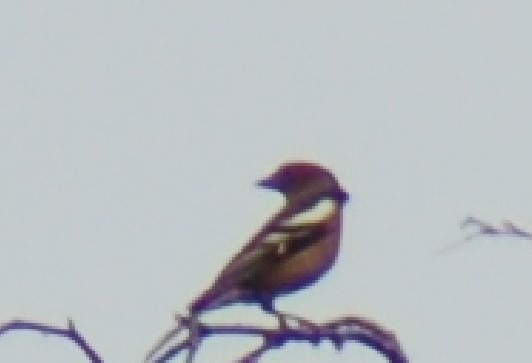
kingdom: Animalia
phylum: Chordata
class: Aves
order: Passeriformes
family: Fringillidae
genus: Fringilla
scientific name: Fringilla coelebs
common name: Bogfinke
